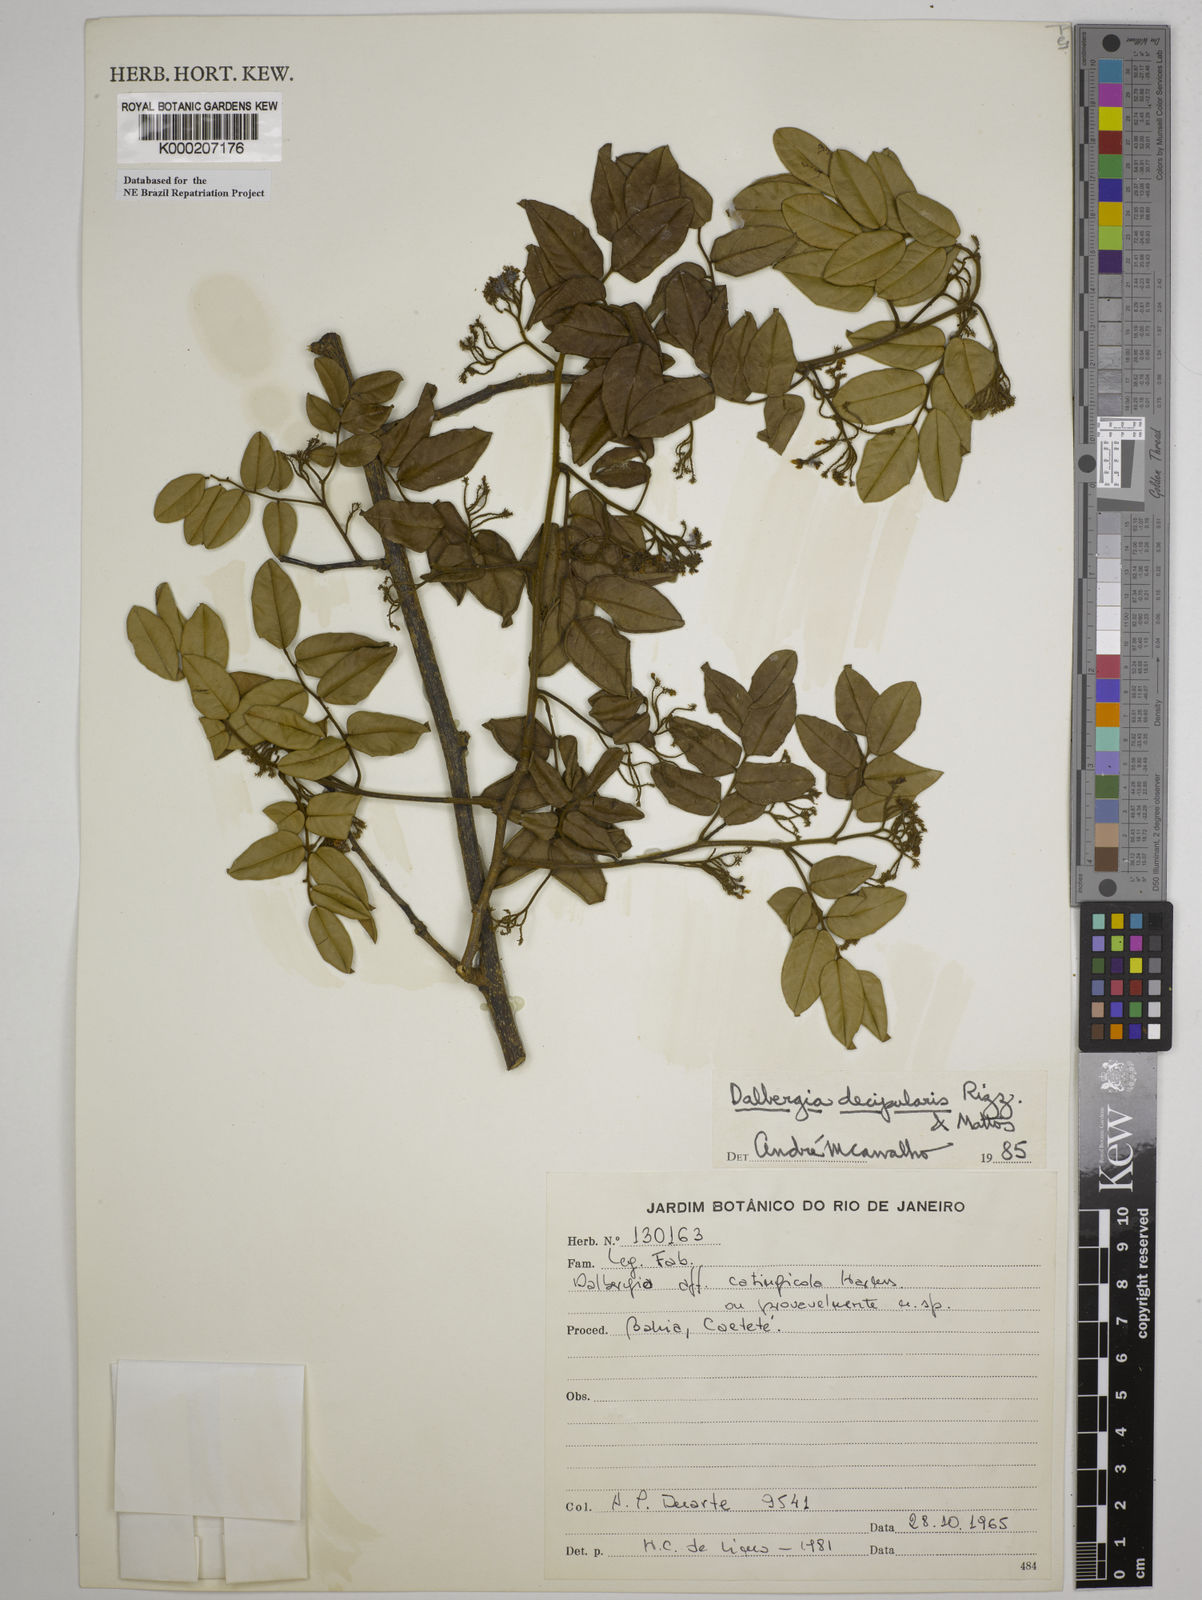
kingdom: Plantae
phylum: Tracheophyta
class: Magnoliopsida
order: Fabales
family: Fabaceae
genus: Dalbergia
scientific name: Dalbergia decipularis
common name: Brazilian tulipwood
